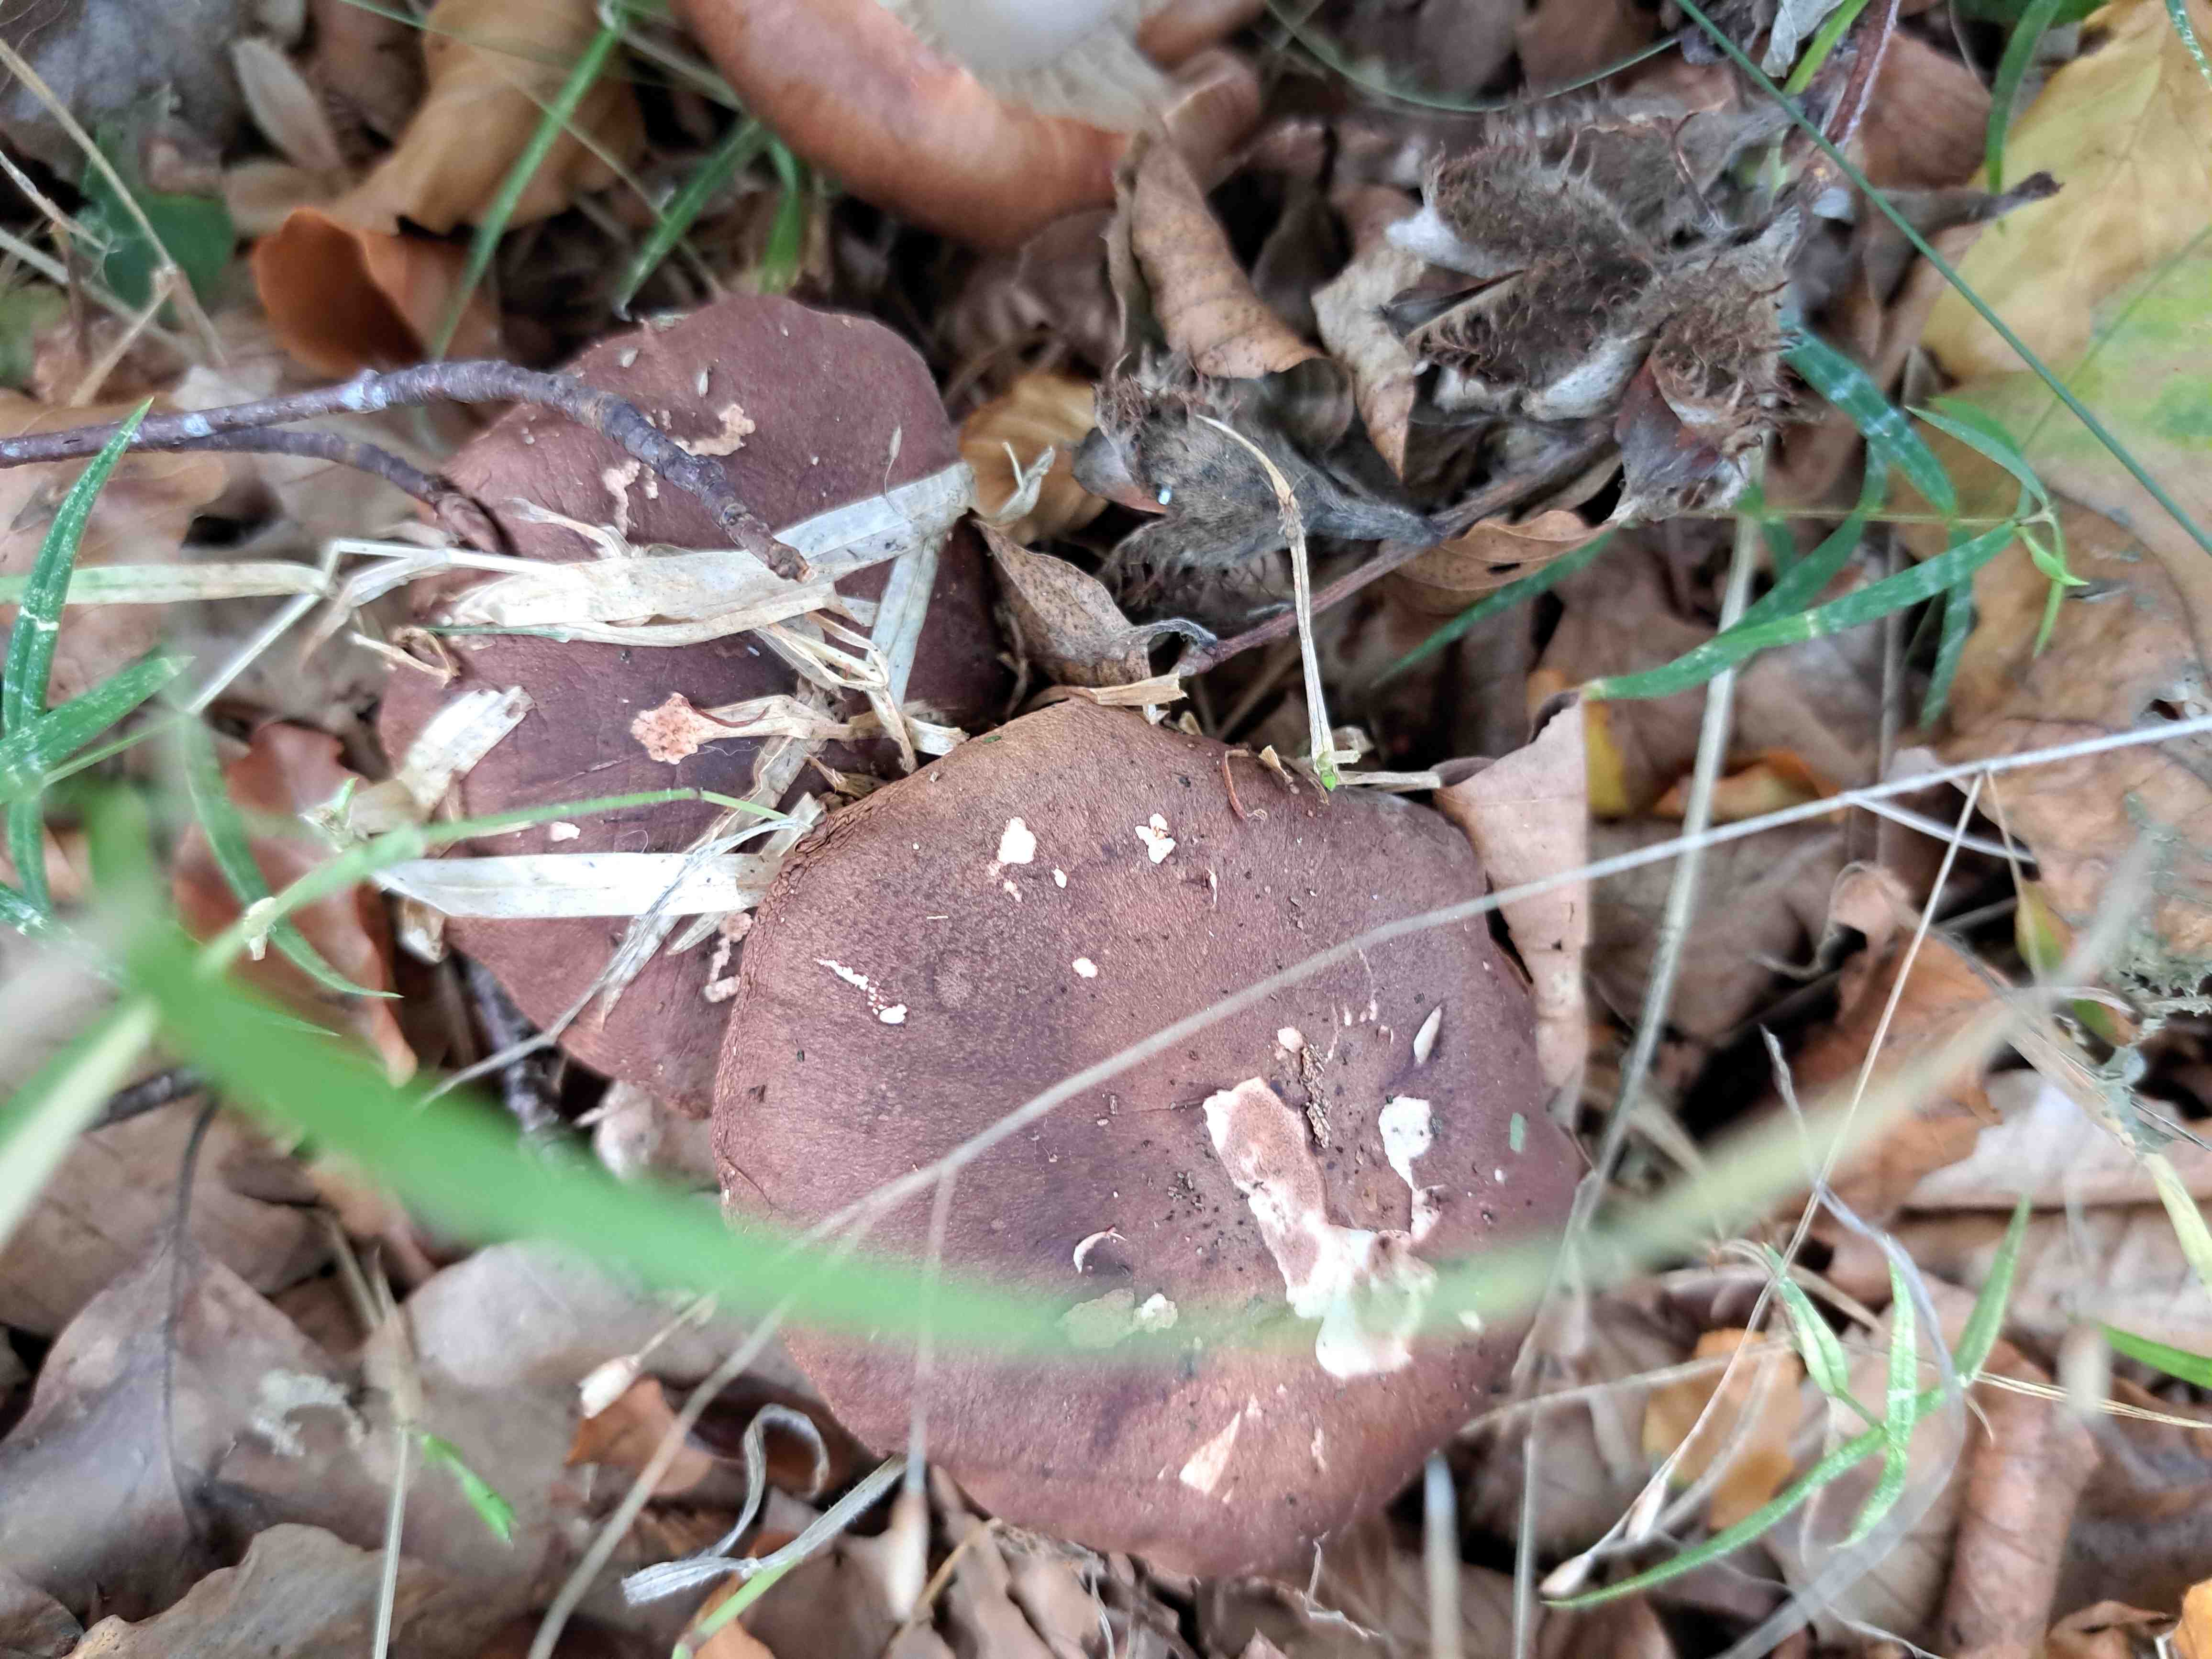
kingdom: Fungi
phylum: Basidiomycota
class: Agaricomycetes
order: Agaricales
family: Tricholomataceae
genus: Tricholoma
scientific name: Tricholoma
